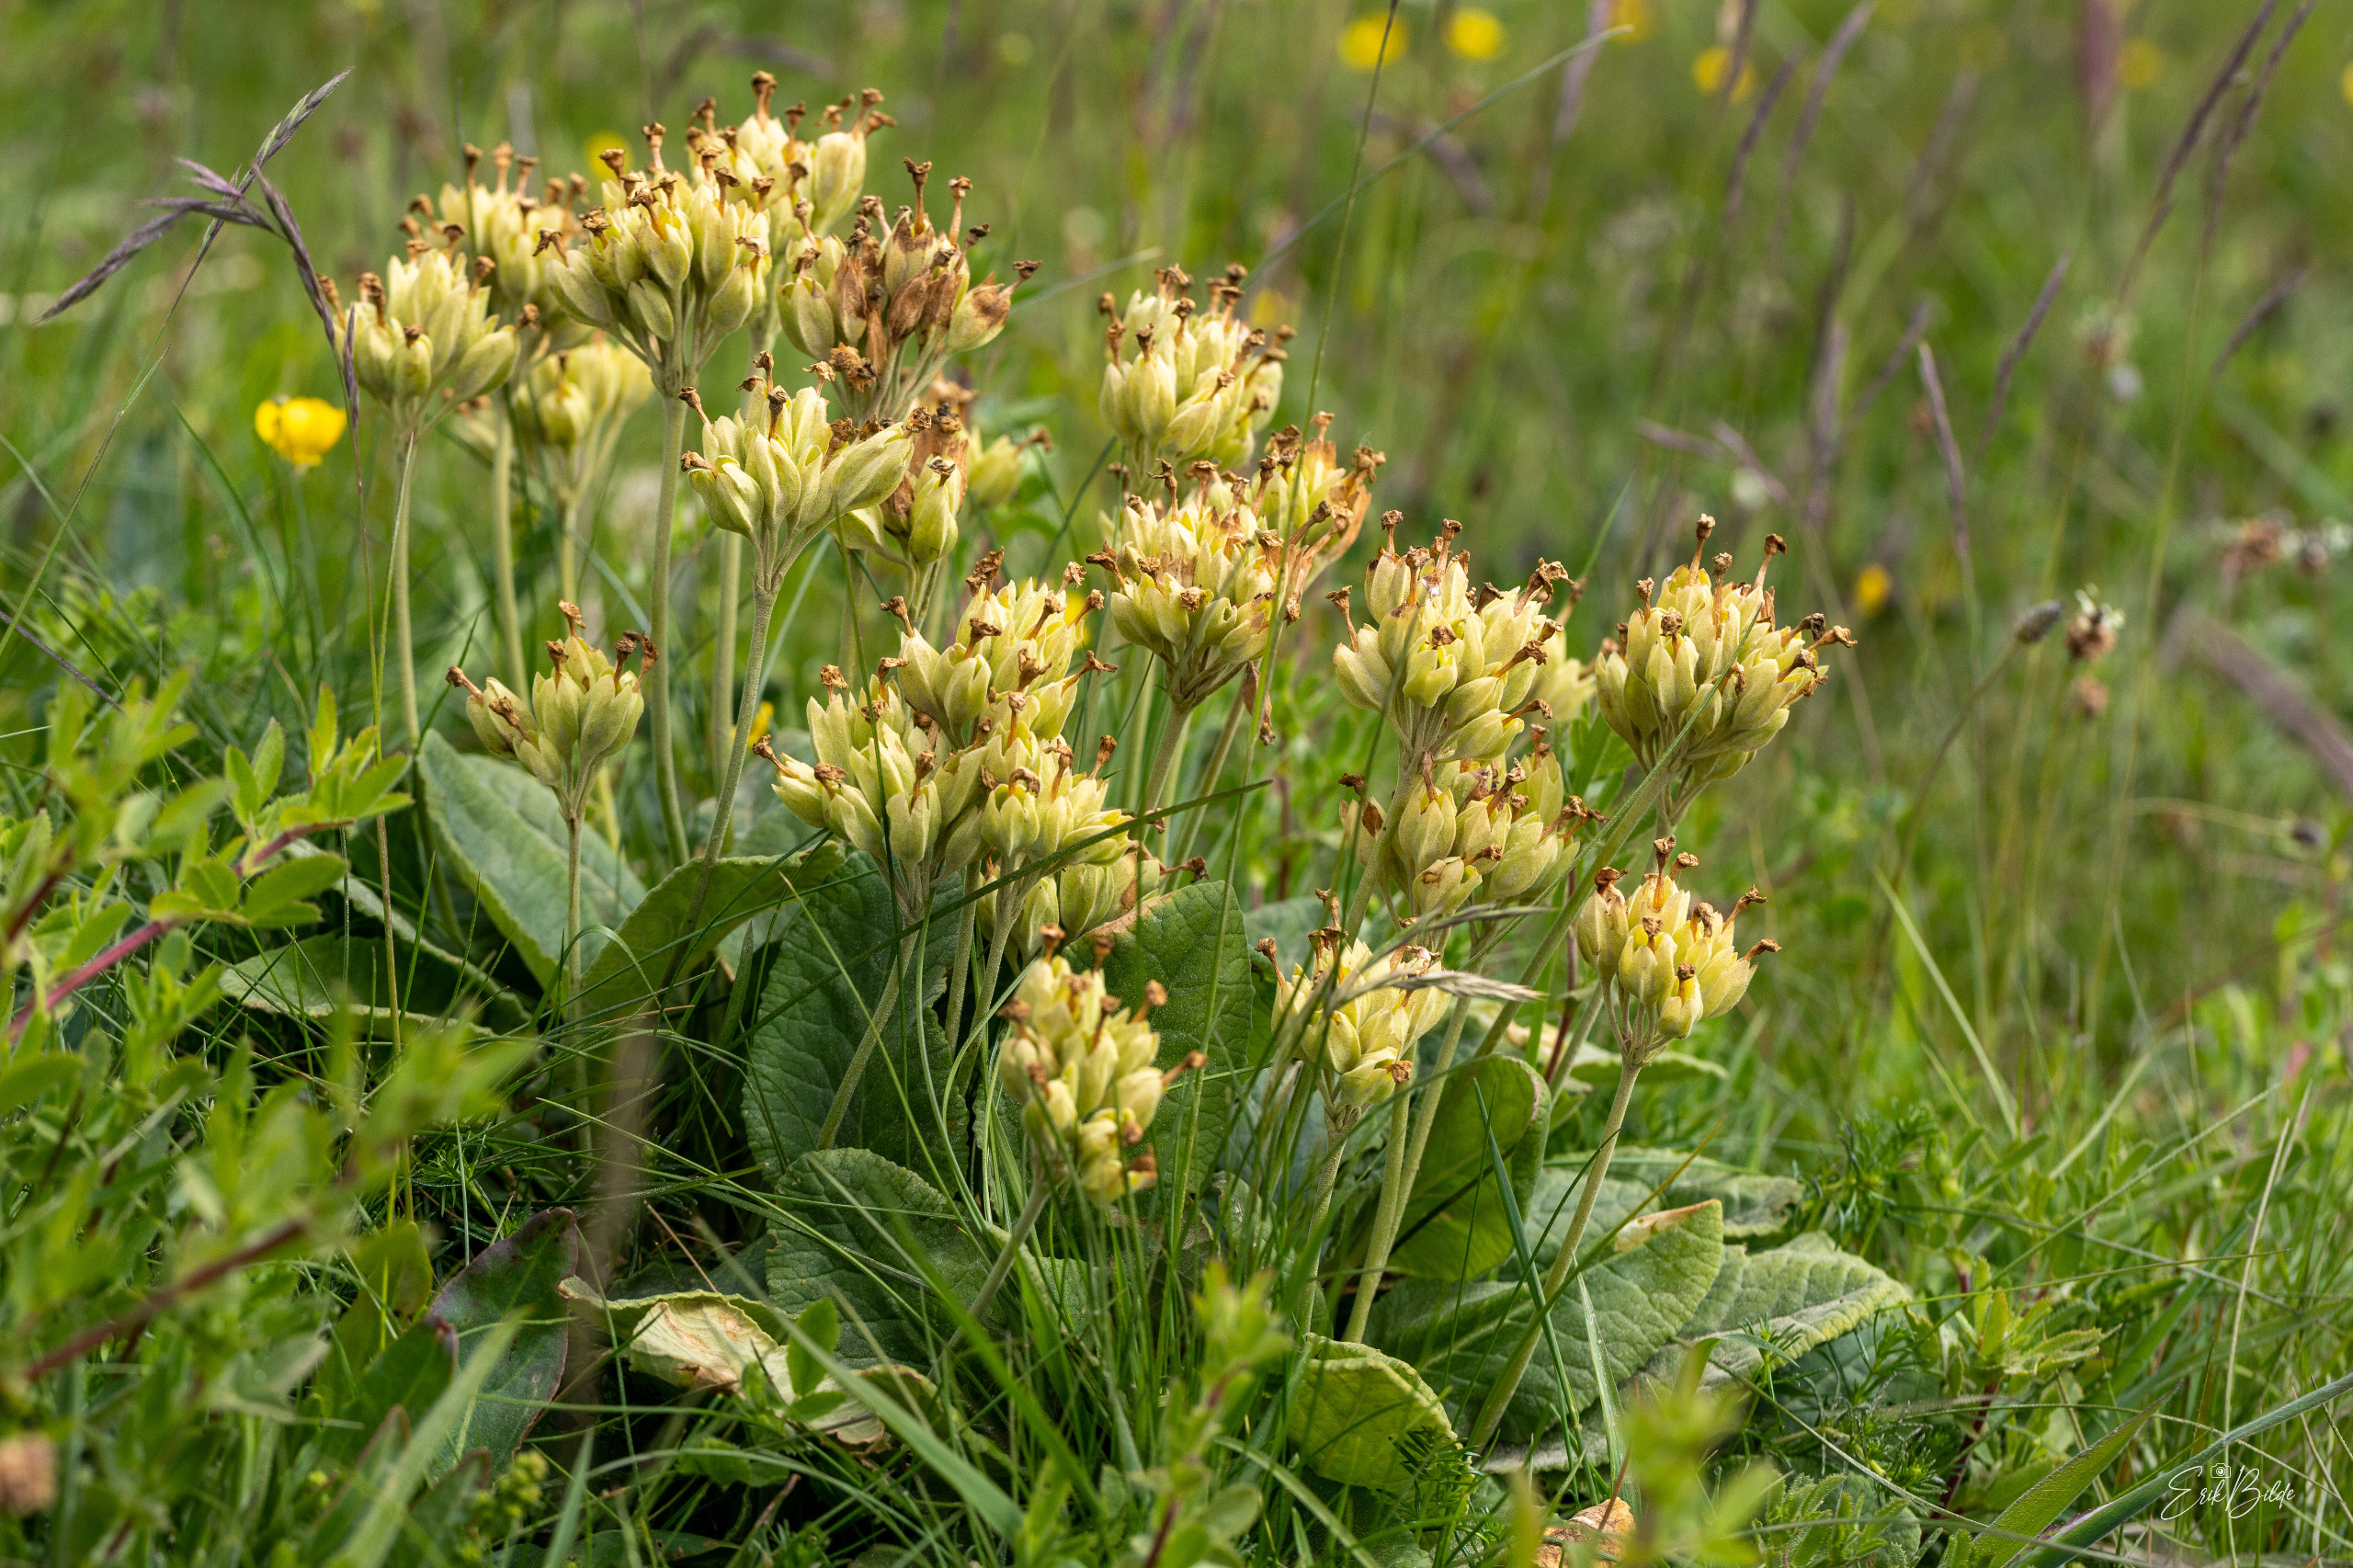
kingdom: Plantae
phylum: Tracheophyta
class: Magnoliopsida
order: Ericales
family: Primulaceae
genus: Primula
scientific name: Primula veris
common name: Hulkravet kodriver
